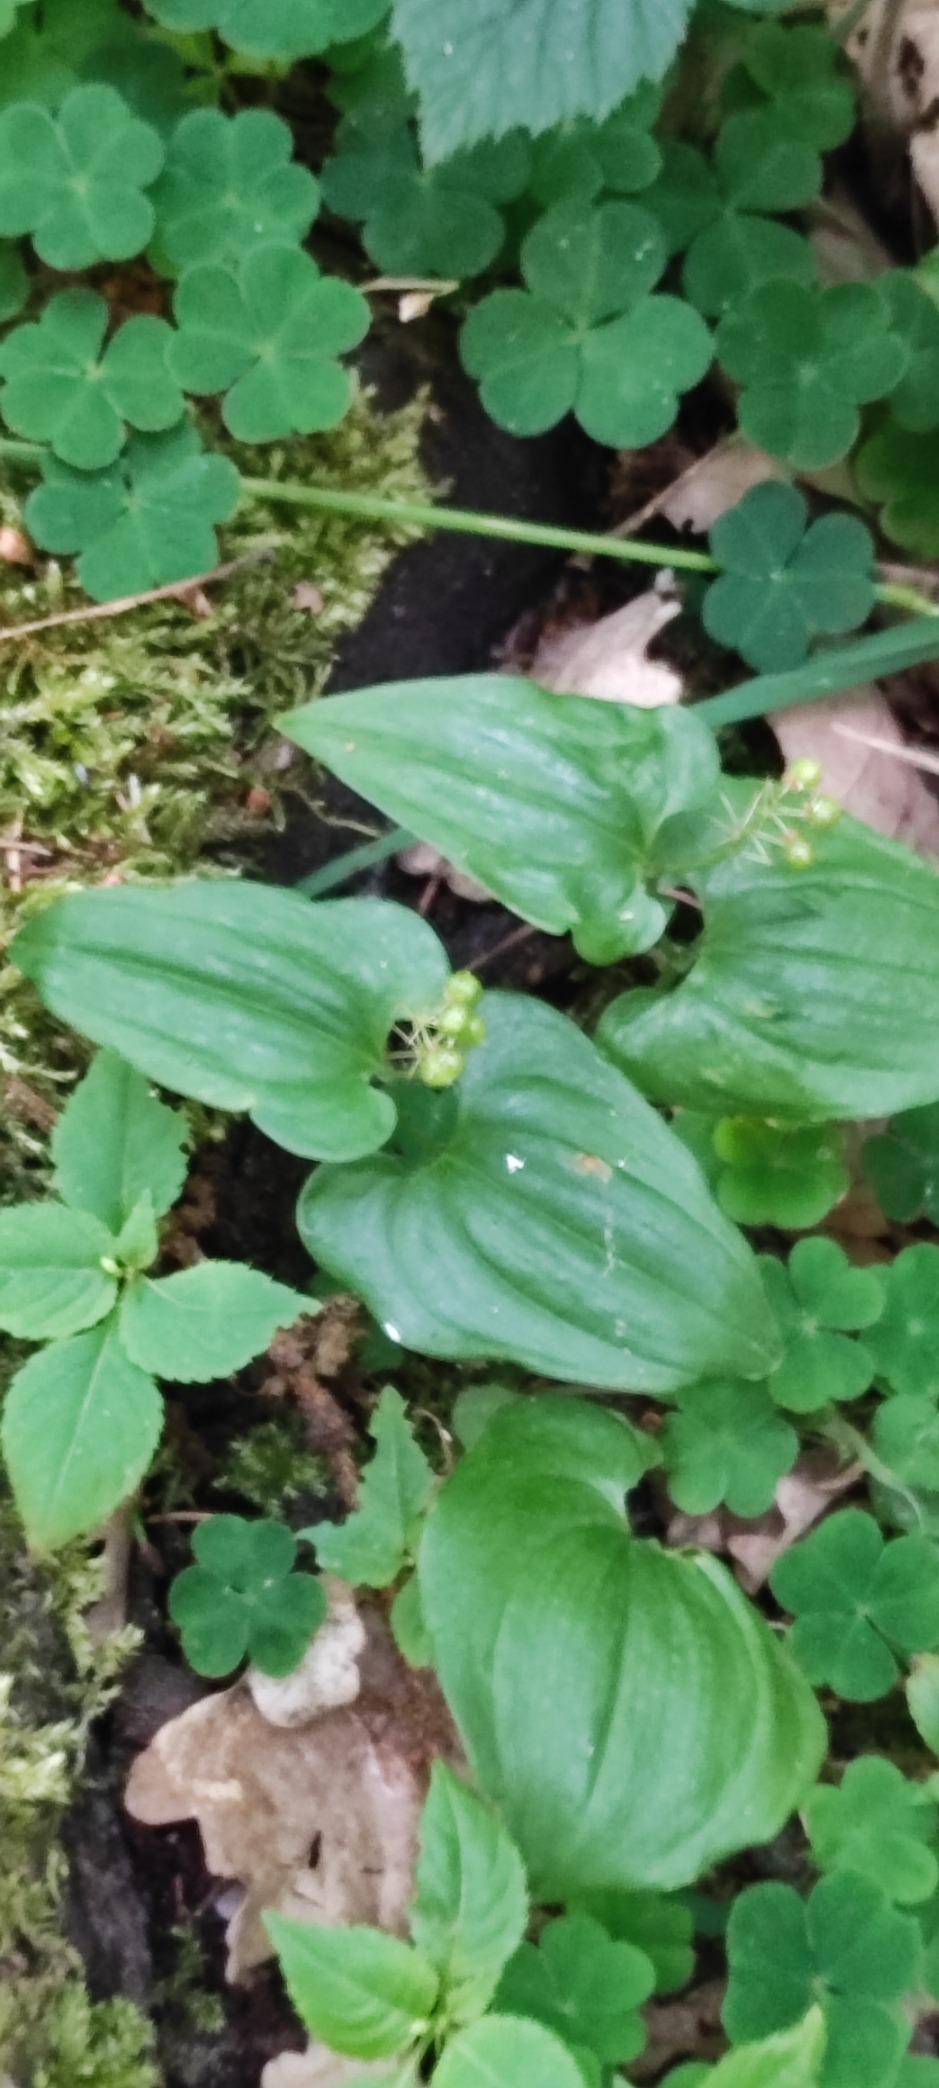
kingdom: Plantae
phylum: Tracheophyta
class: Liliopsida
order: Asparagales
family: Asparagaceae
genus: Maianthemum
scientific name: Maianthemum bifolium
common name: Majblomst
